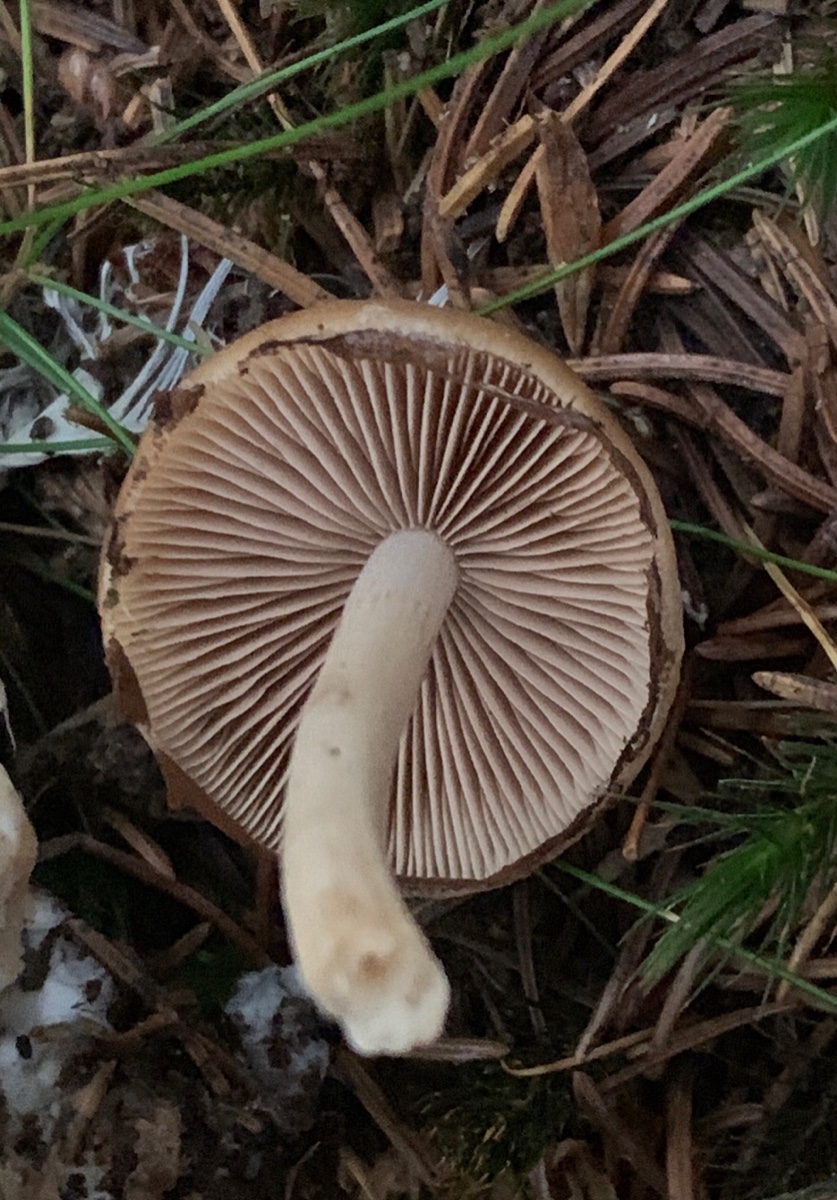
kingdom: Fungi
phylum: Basidiomycota
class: Agaricomycetes
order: Agaricales
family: Psathyrellaceae
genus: Psathyrella
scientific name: Psathyrella piluliformis
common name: lysstokket mørkhat
